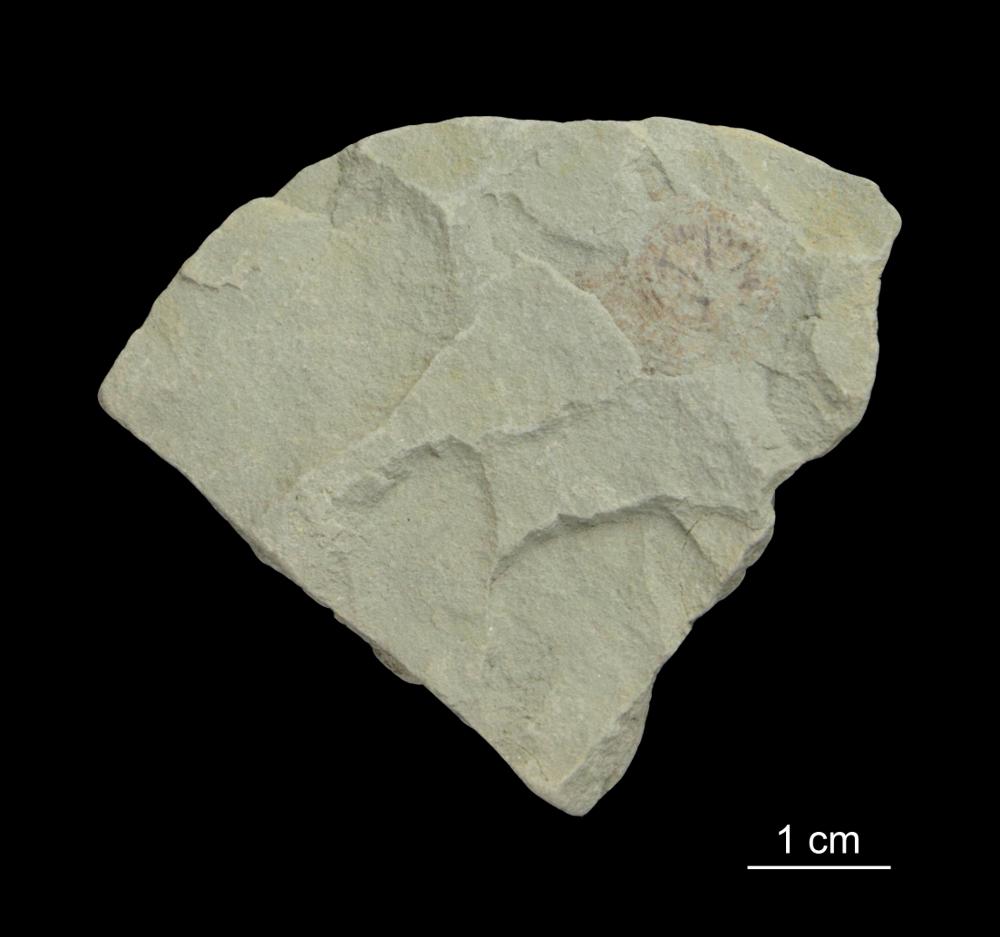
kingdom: Animalia
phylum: Mollusca
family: Scenellidae
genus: Scenella
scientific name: Scenella
